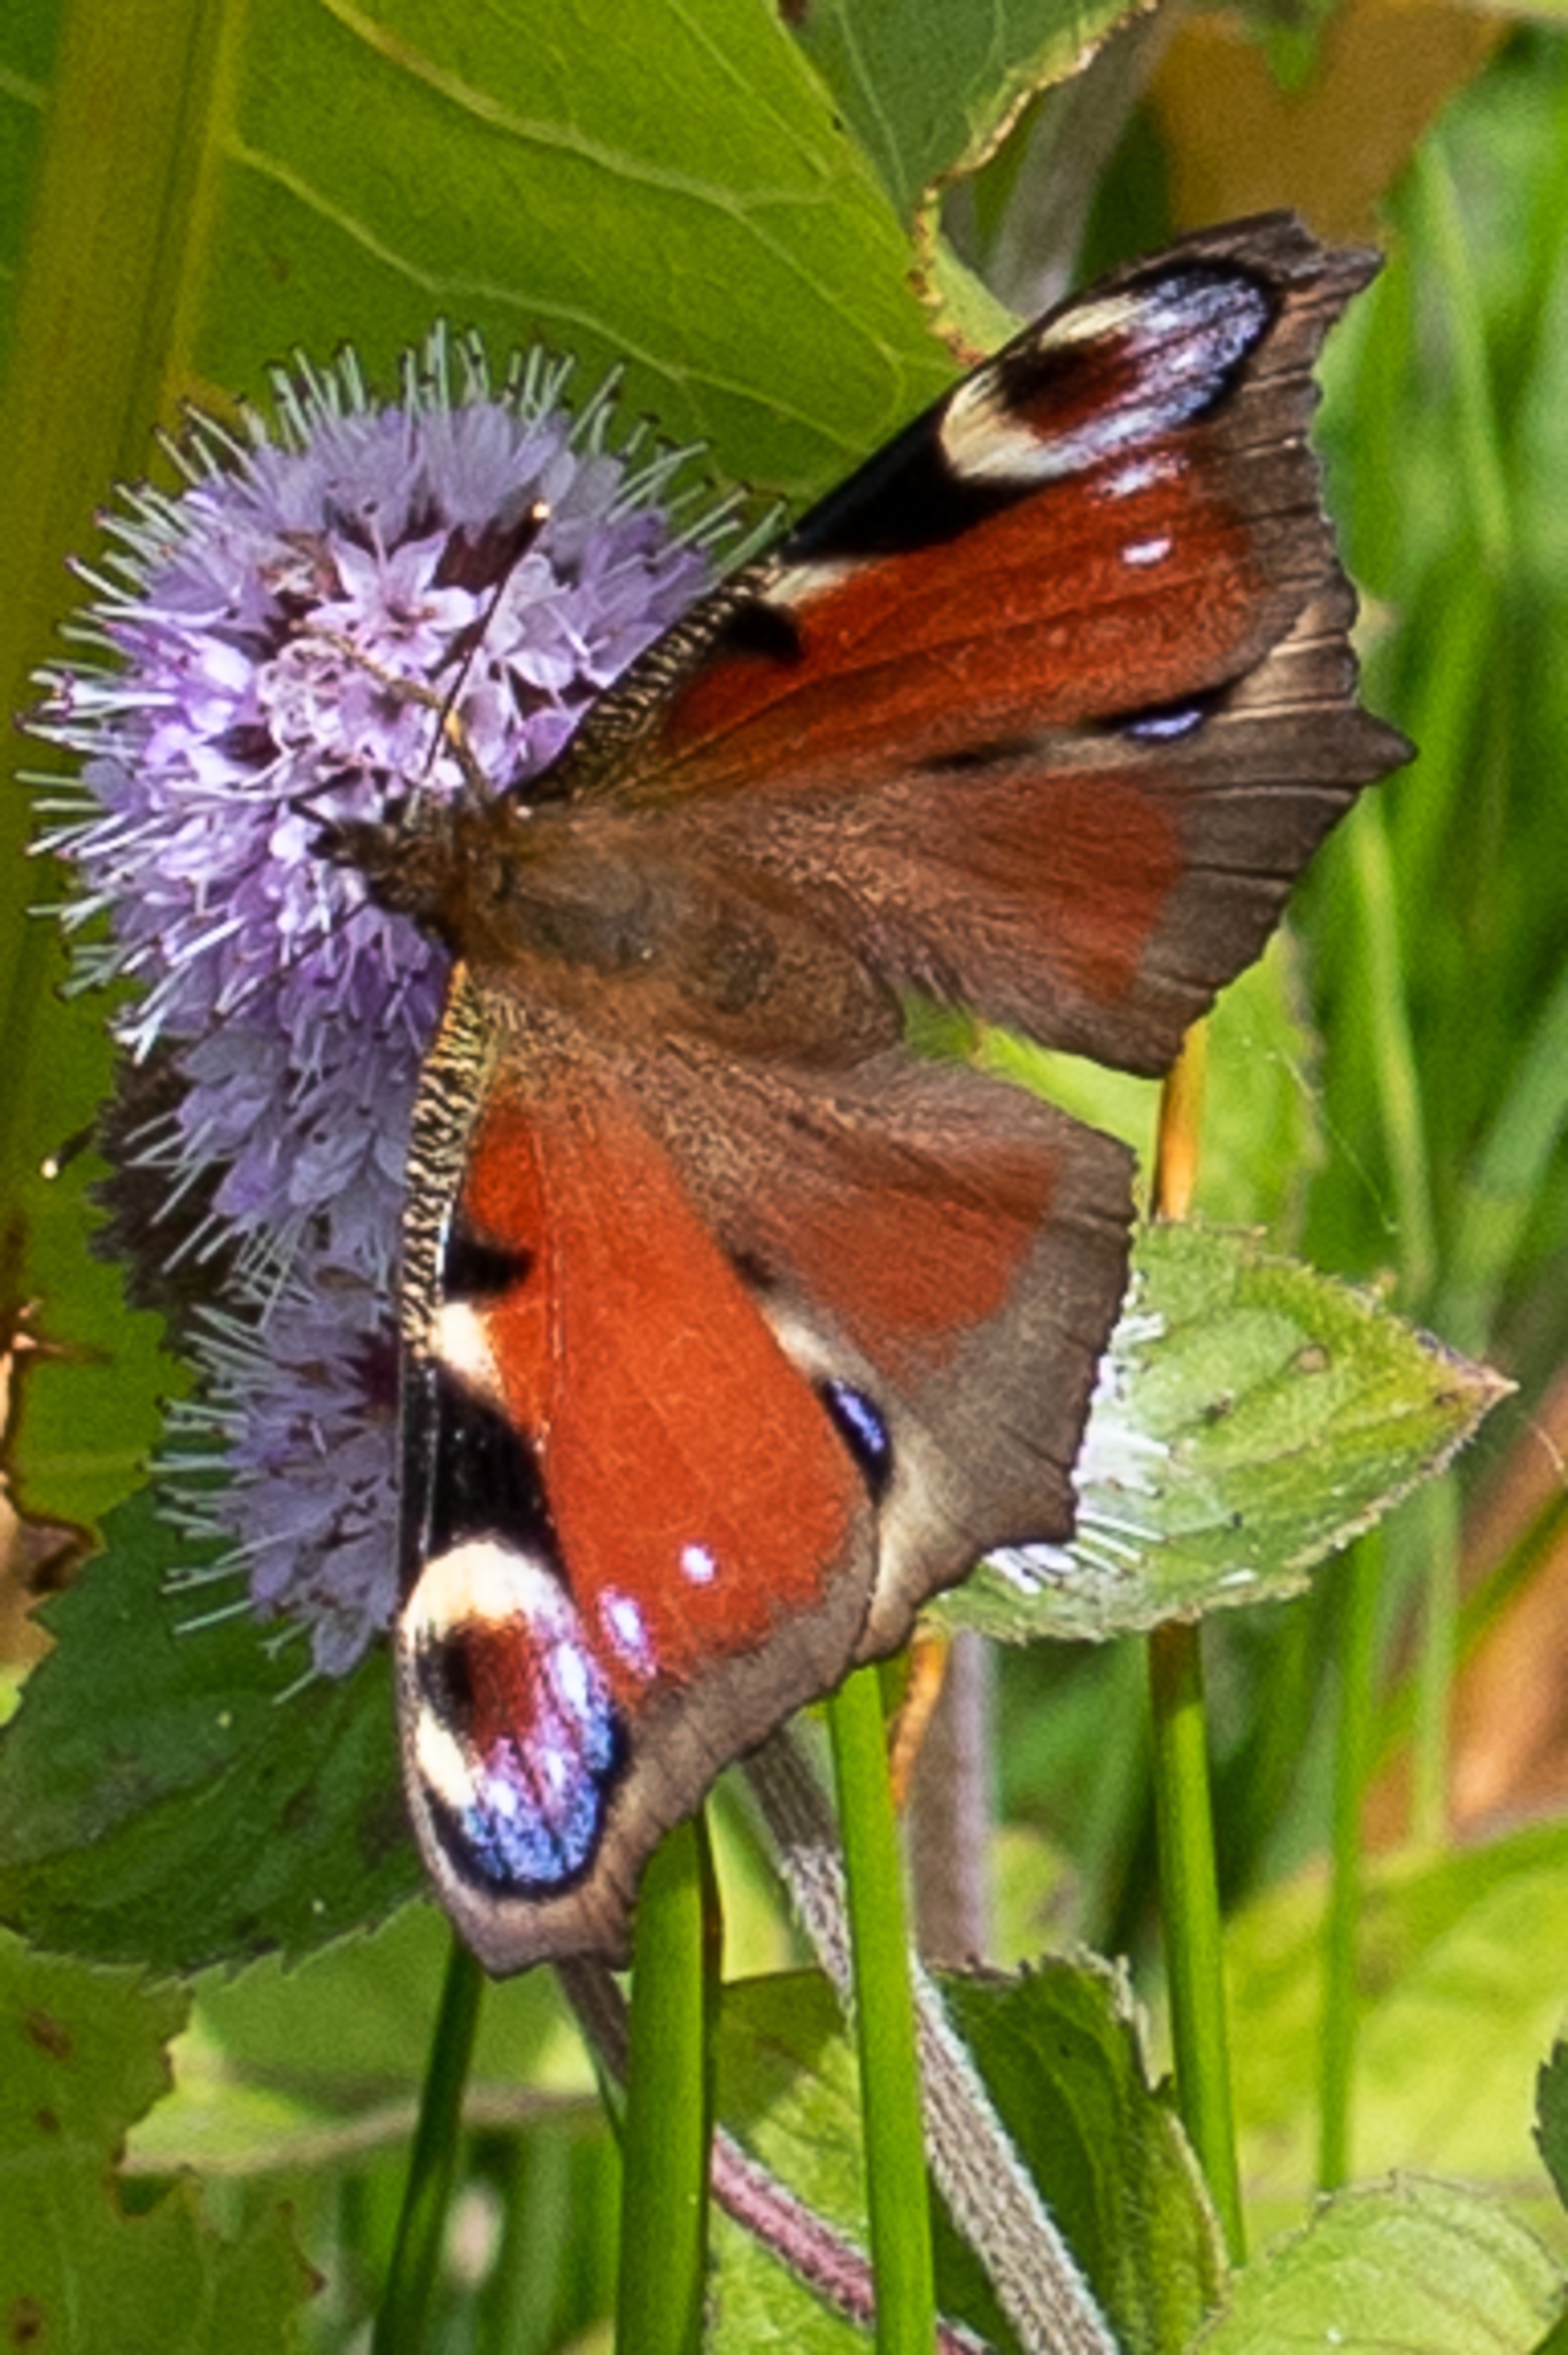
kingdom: Animalia
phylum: Arthropoda
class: Insecta
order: Lepidoptera
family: Nymphalidae
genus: Aglais
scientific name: Aglais io
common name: Dagpåfugleøje
